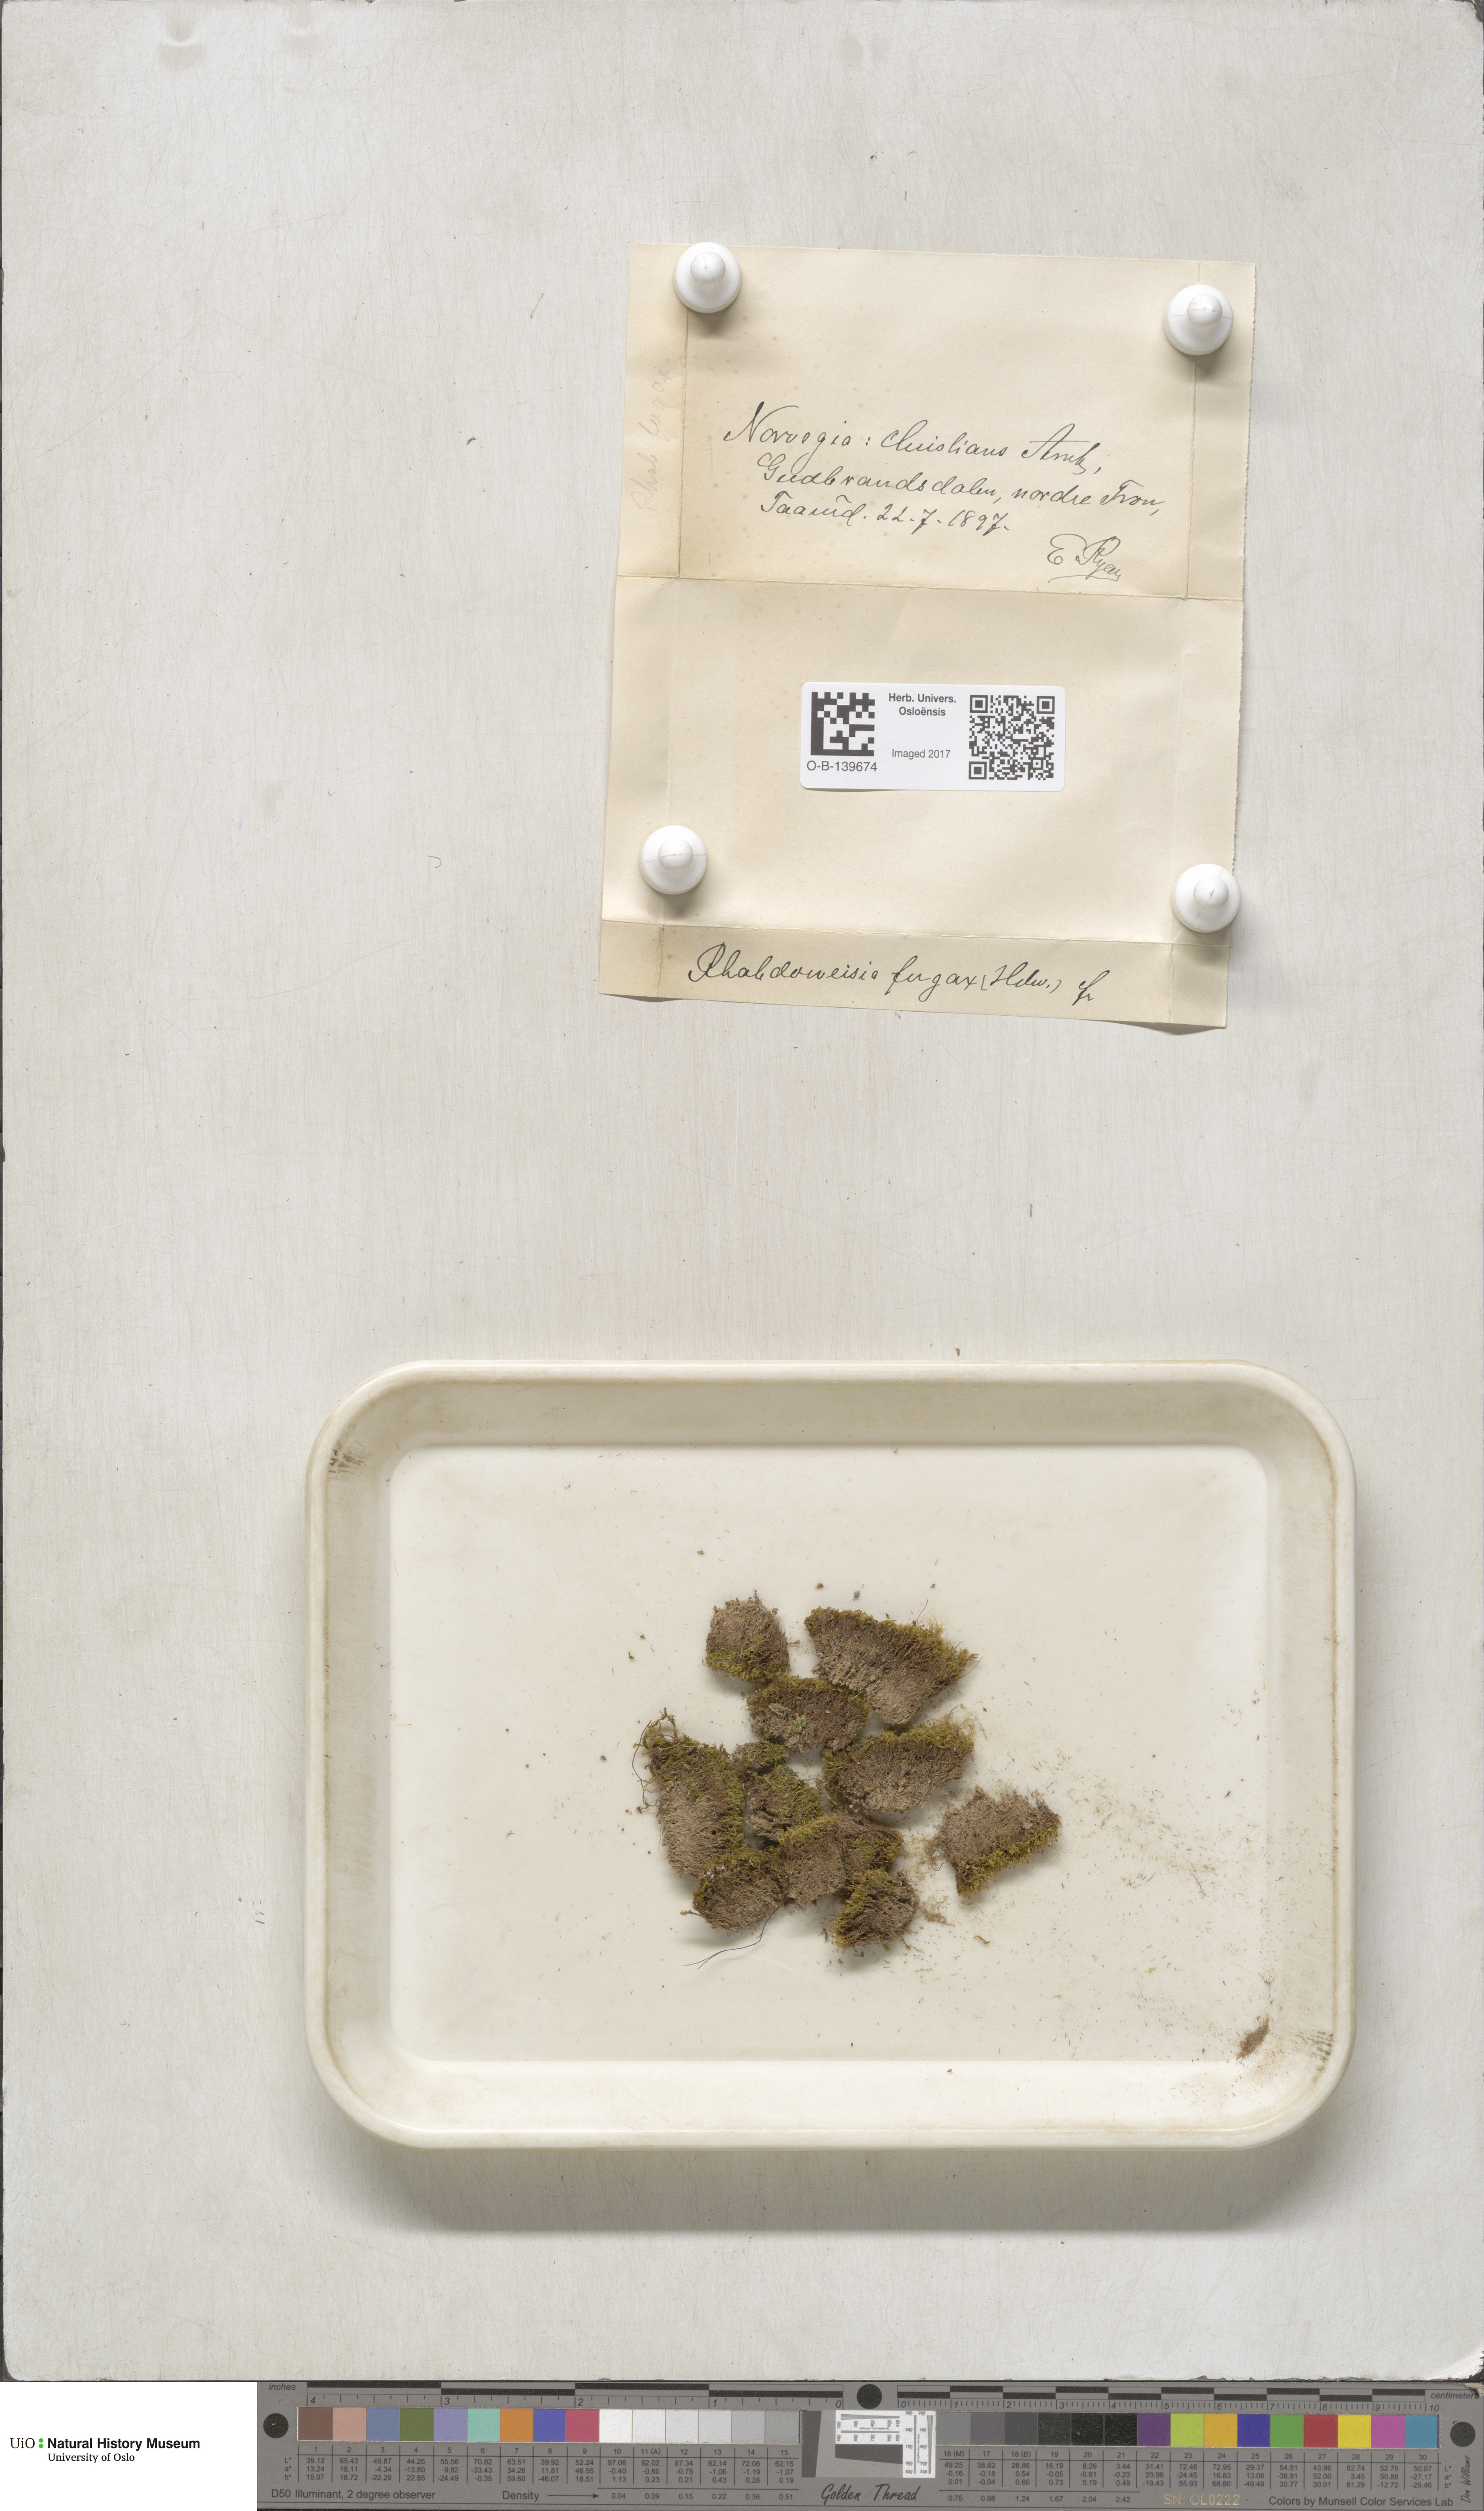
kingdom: Plantae
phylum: Bryophyta
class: Bryopsida
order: Dicranales
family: Rhabdoweisiaceae
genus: Rhabdoweisia
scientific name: Rhabdoweisia fugax
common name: Dwarf streak-moss
